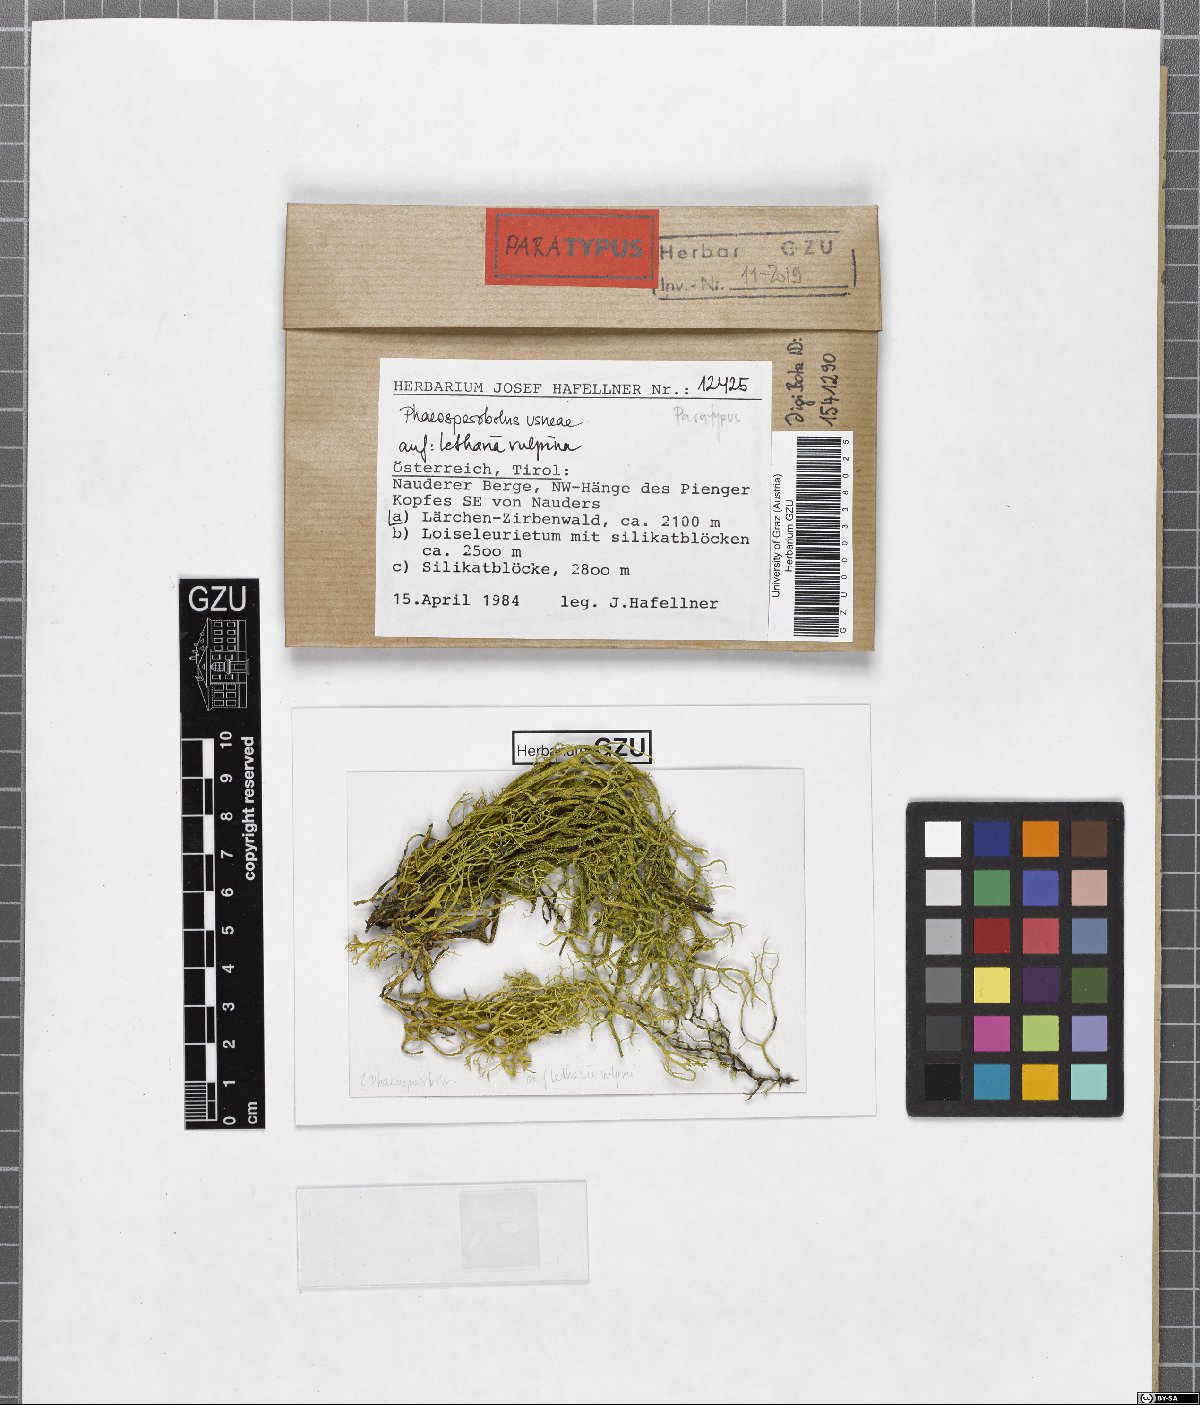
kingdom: Fungi
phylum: Ascomycota
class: Arthoniomycetes
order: Lichenostigmatales
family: Phaeococcomycetaceae
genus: Phaeosporobolus
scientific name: Phaeosporobolus usneae
